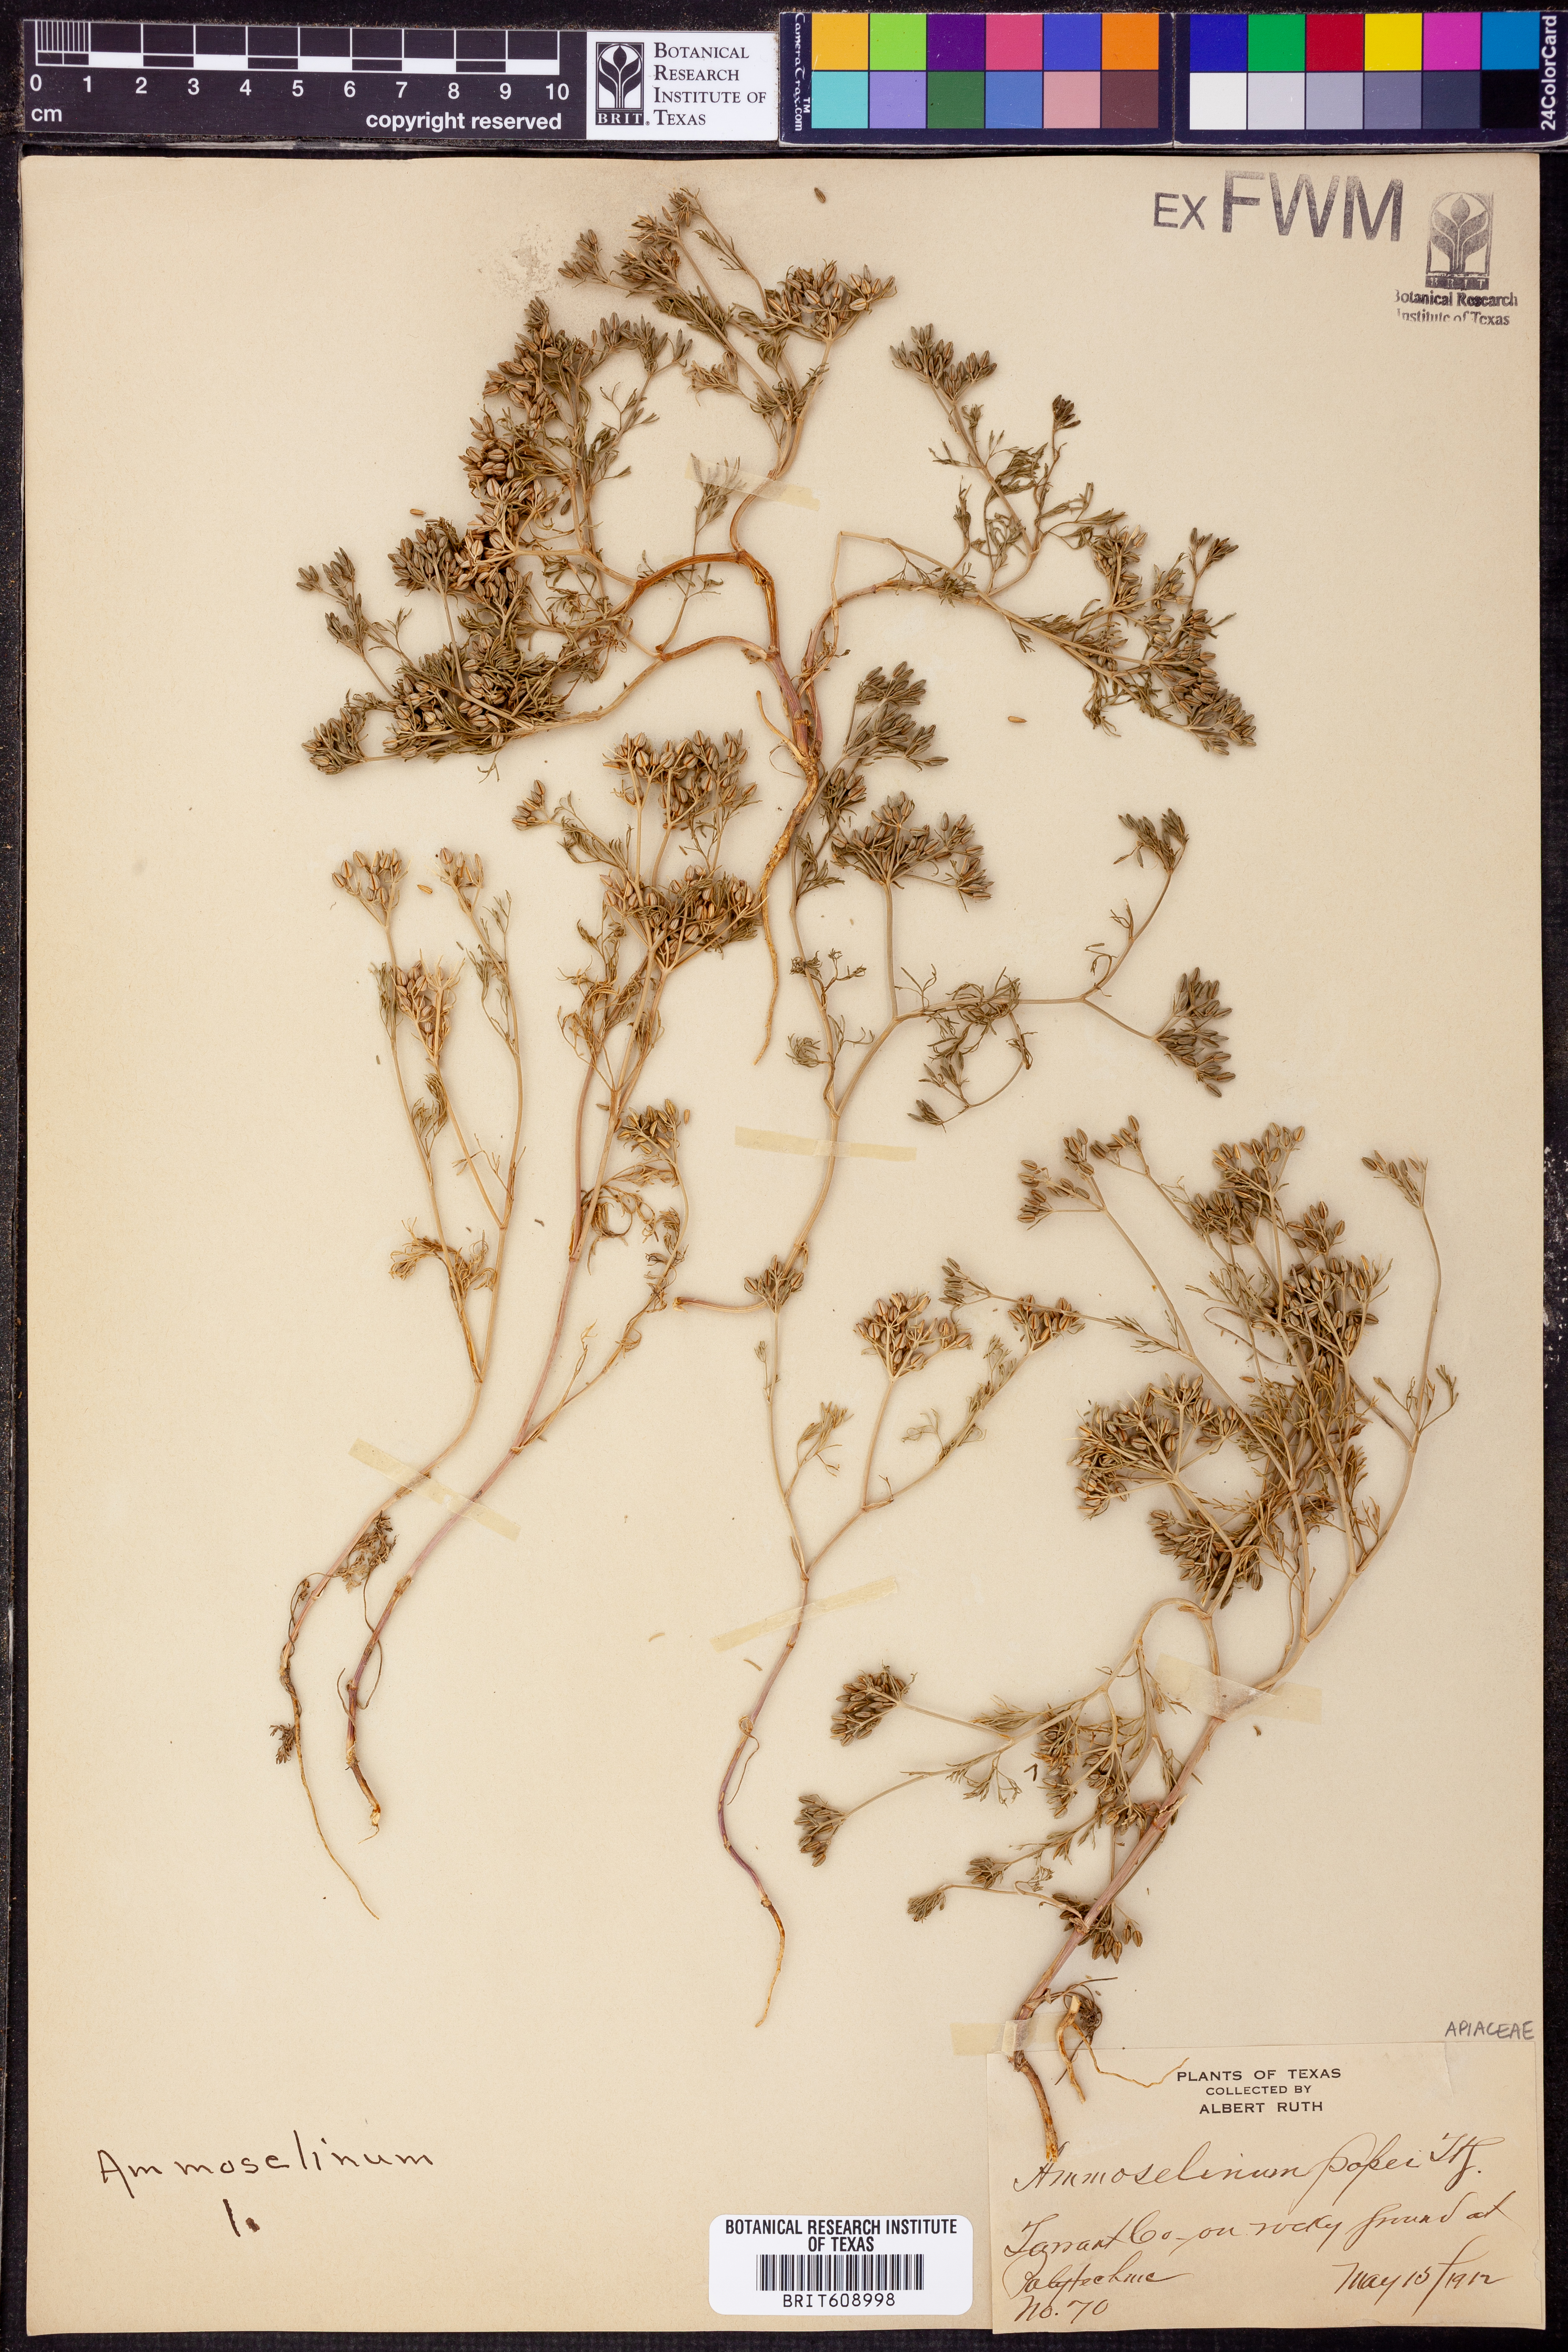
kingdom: Plantae
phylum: Tracheophyta
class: Magnoliopsida
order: Apiales
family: Apiaceae
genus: Ammoselinum
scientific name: Ammoselinum popei
